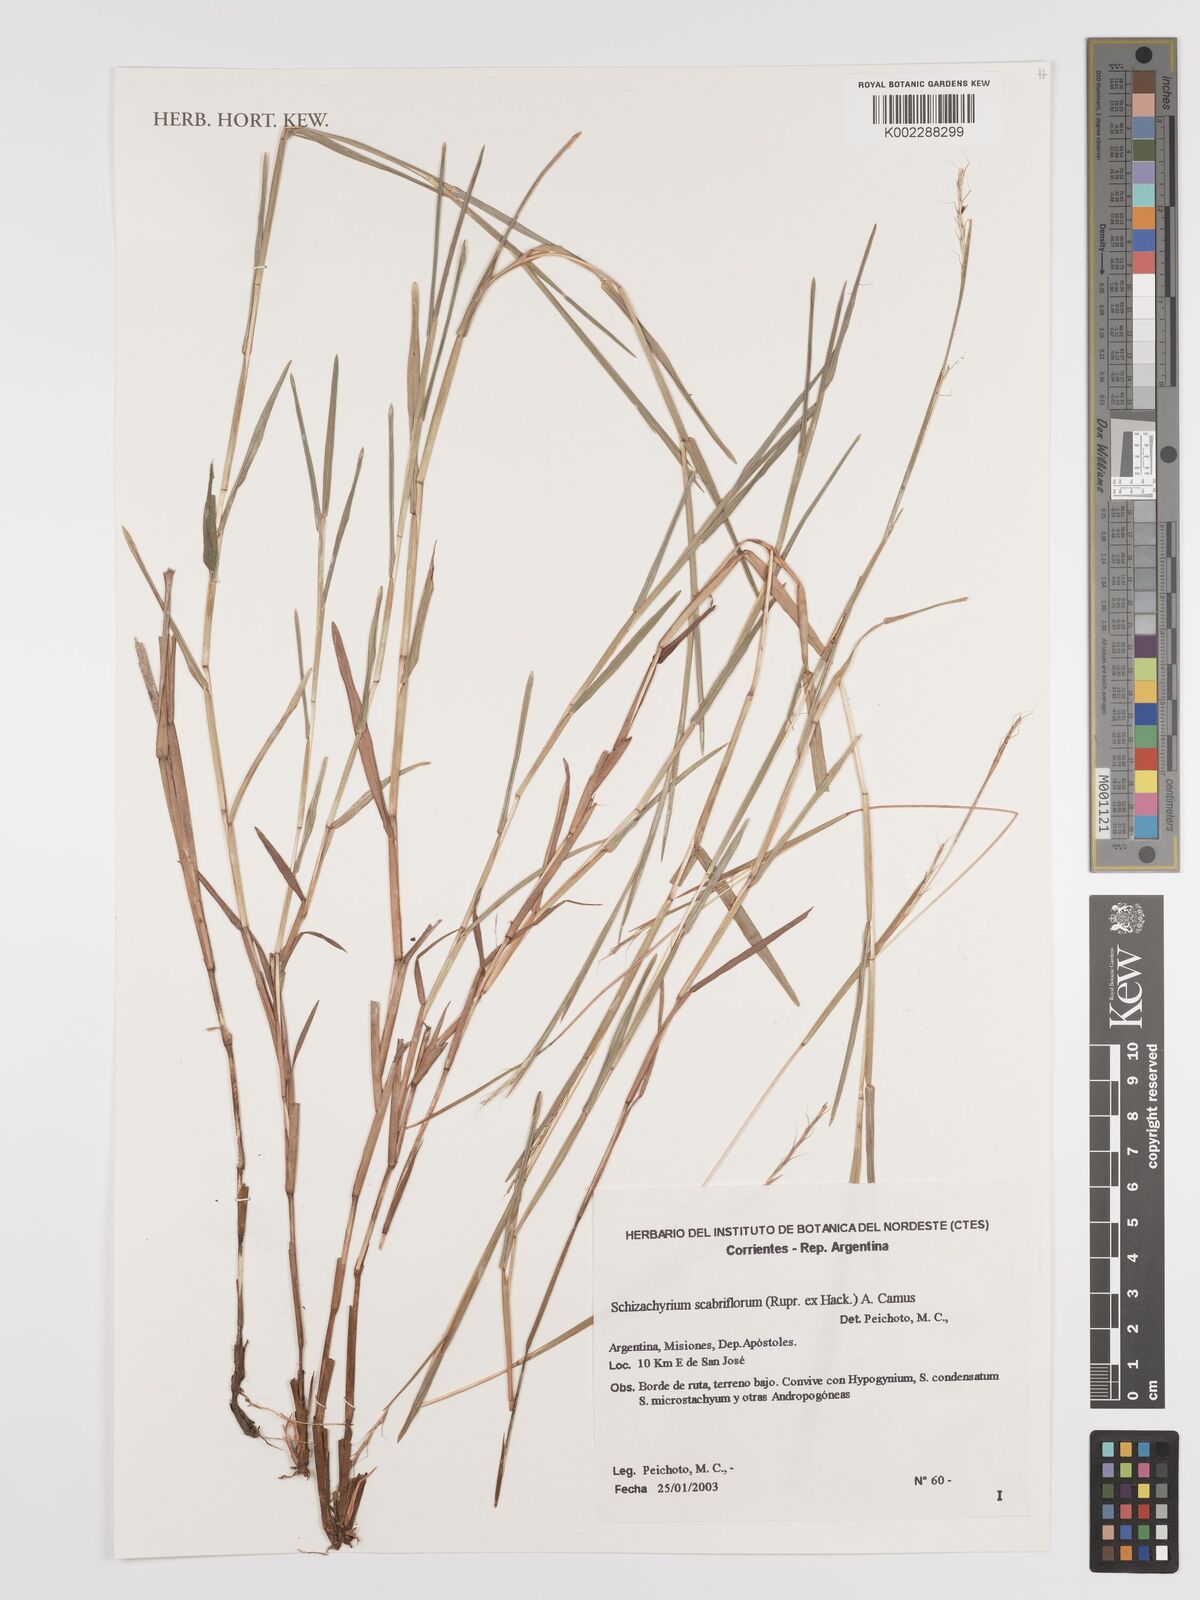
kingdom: Plantae
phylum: Tracheophyta
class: Liliopsida
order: Poales
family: Poaceae
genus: Schizachyrium
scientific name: Schizachyrium scabriflorum
